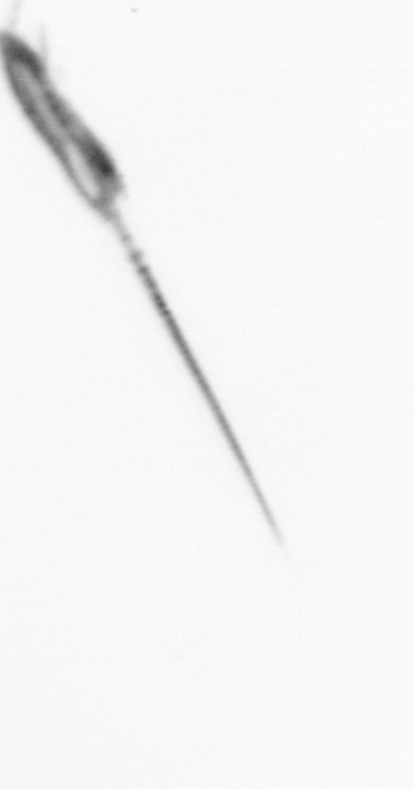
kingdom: Animalia
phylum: Arthropoda
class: Copepoda
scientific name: Copepoda
